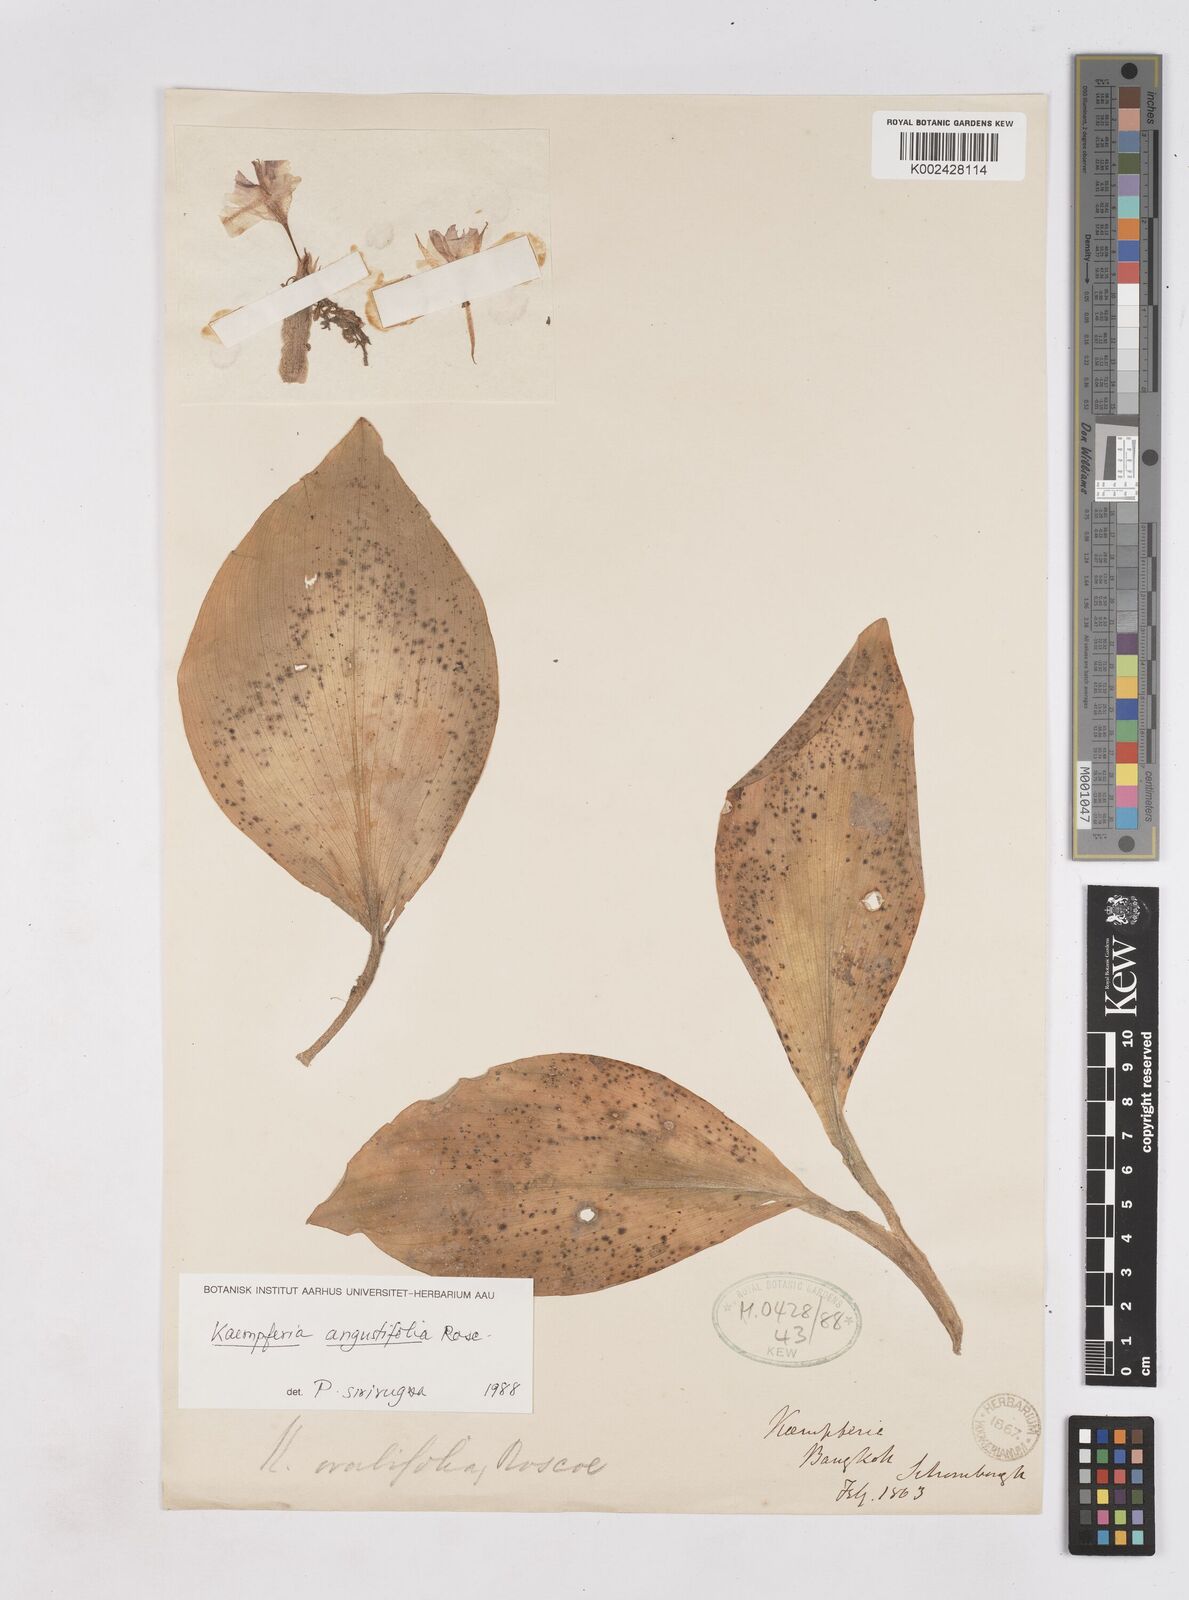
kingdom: Plantae
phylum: Tracheophyta
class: Liliopsida
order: Zingiberales
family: Zingiberaceae
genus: Kaempferia
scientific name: Kaempferia angustifolia
